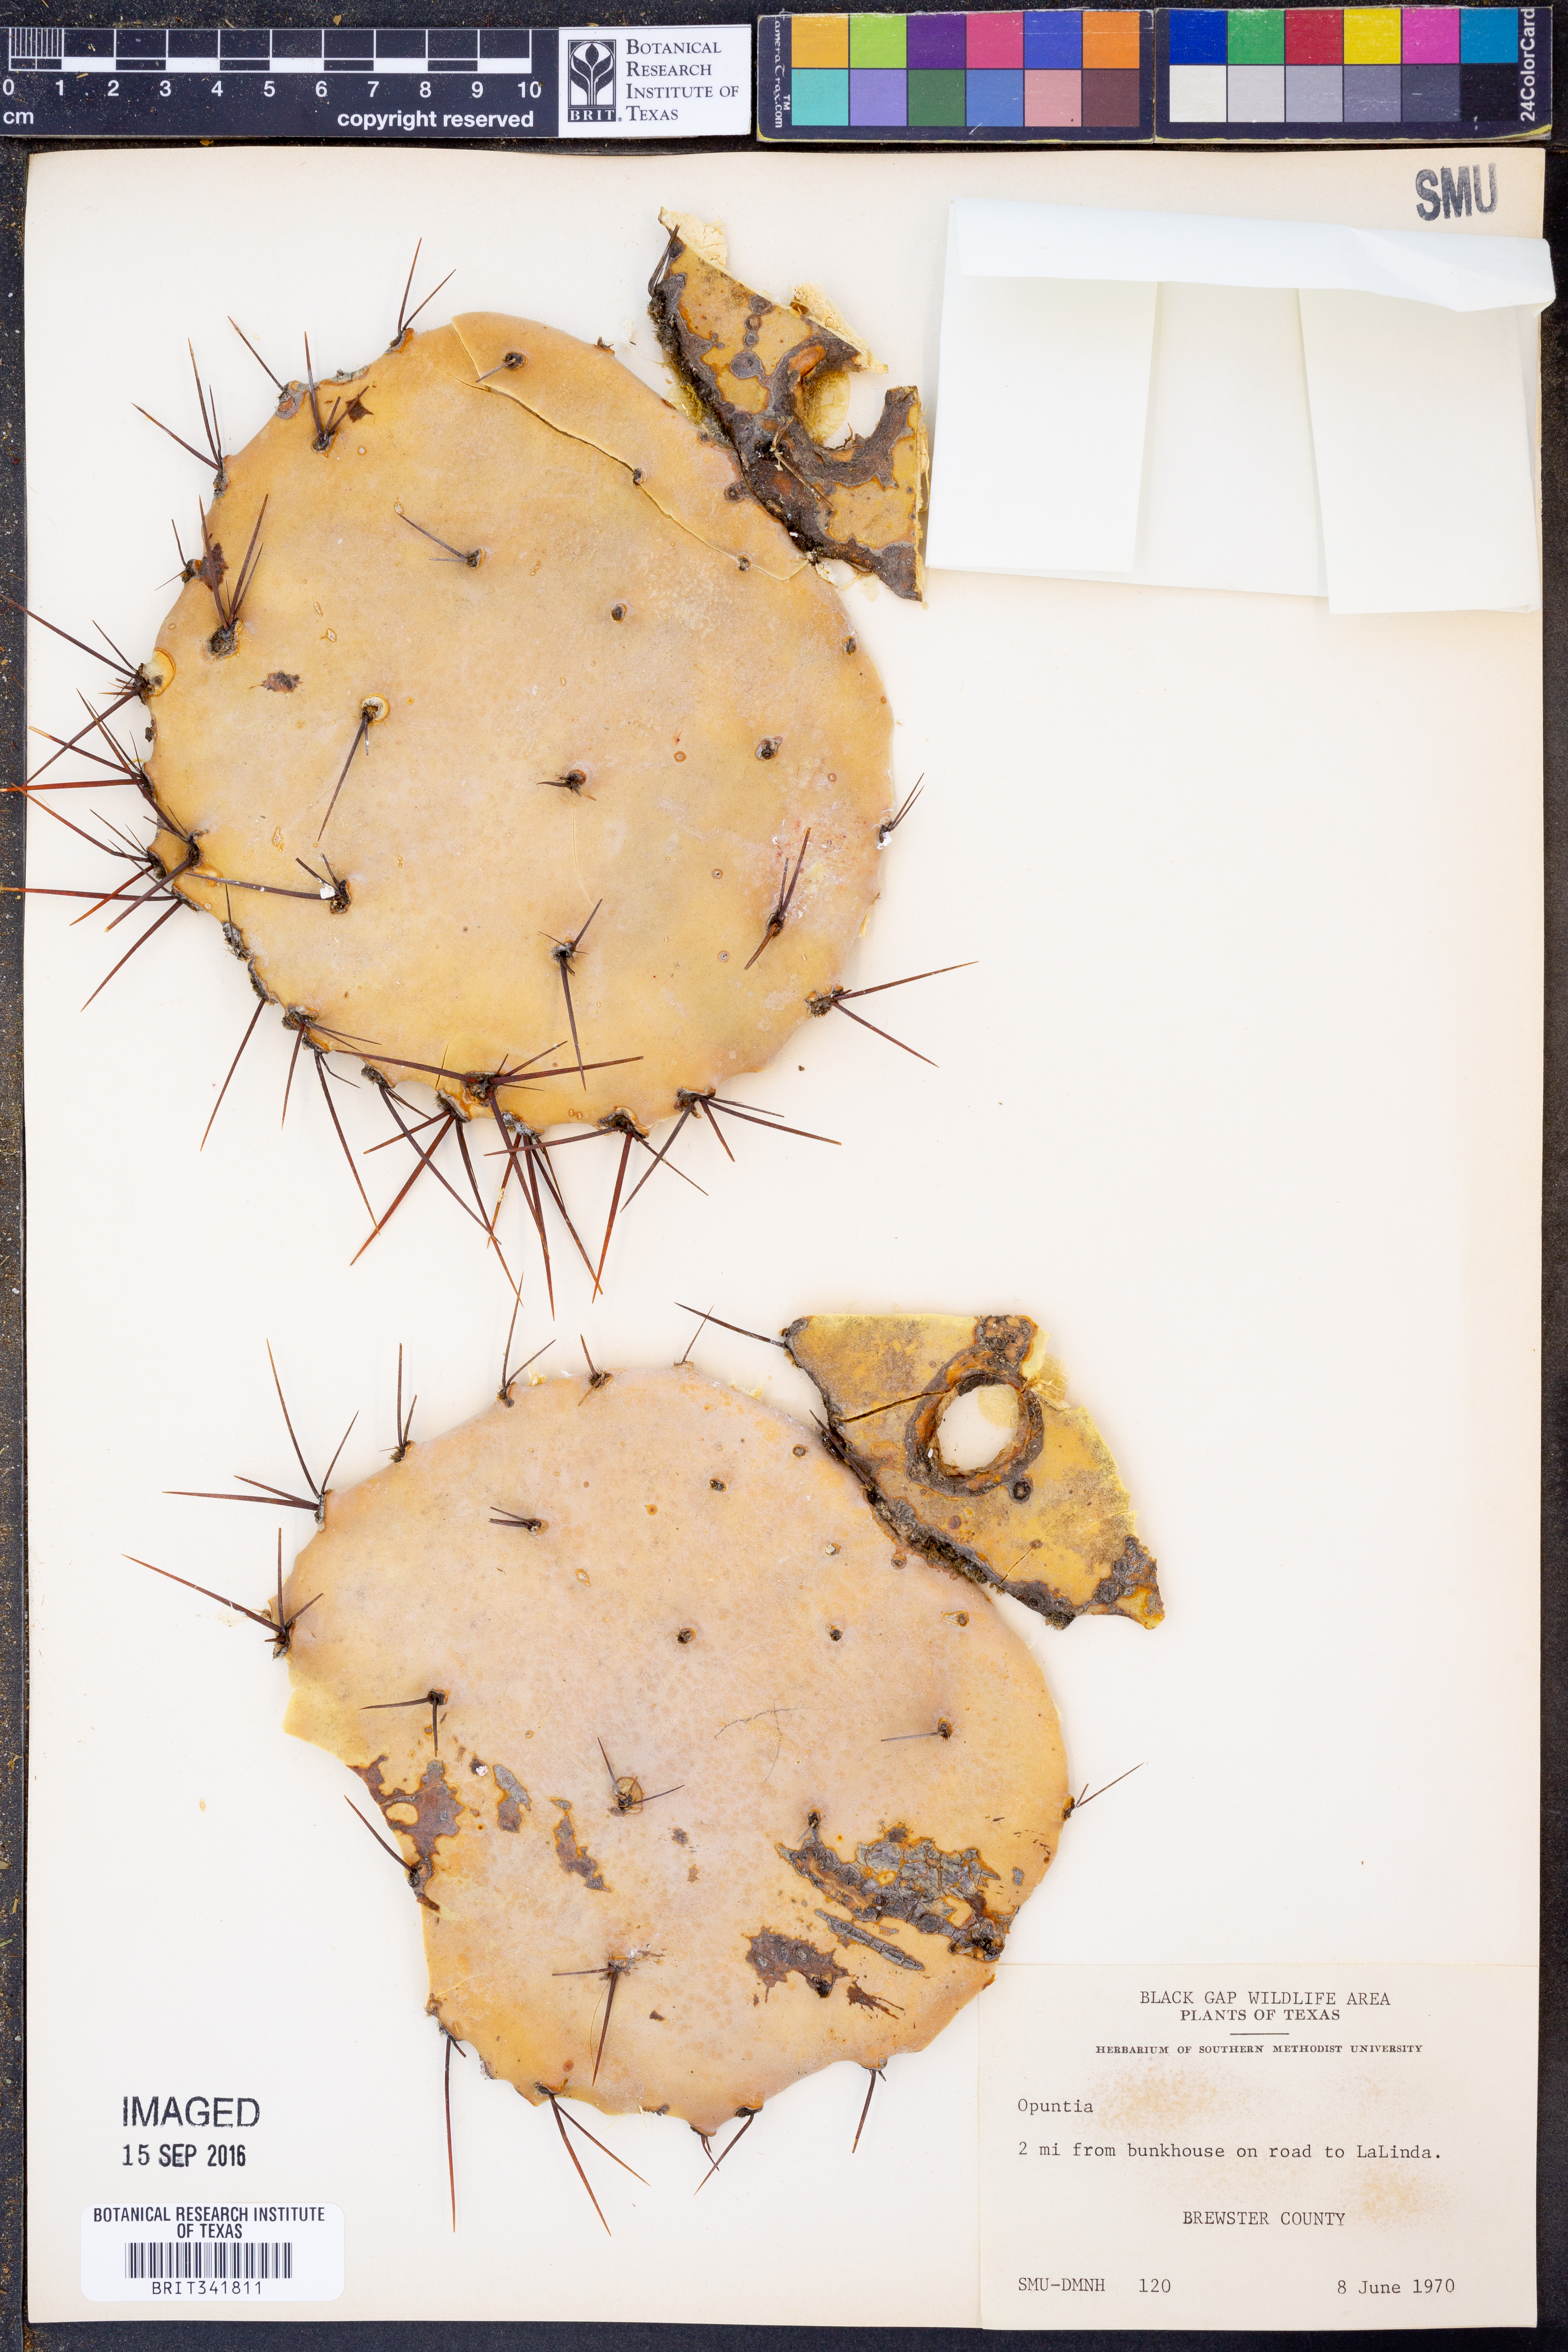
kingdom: Plantae
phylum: Tracheophyta
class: Magnoliopsida
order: Caryophyllales
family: Cactaceae
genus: Opuntia
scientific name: Opuntia
